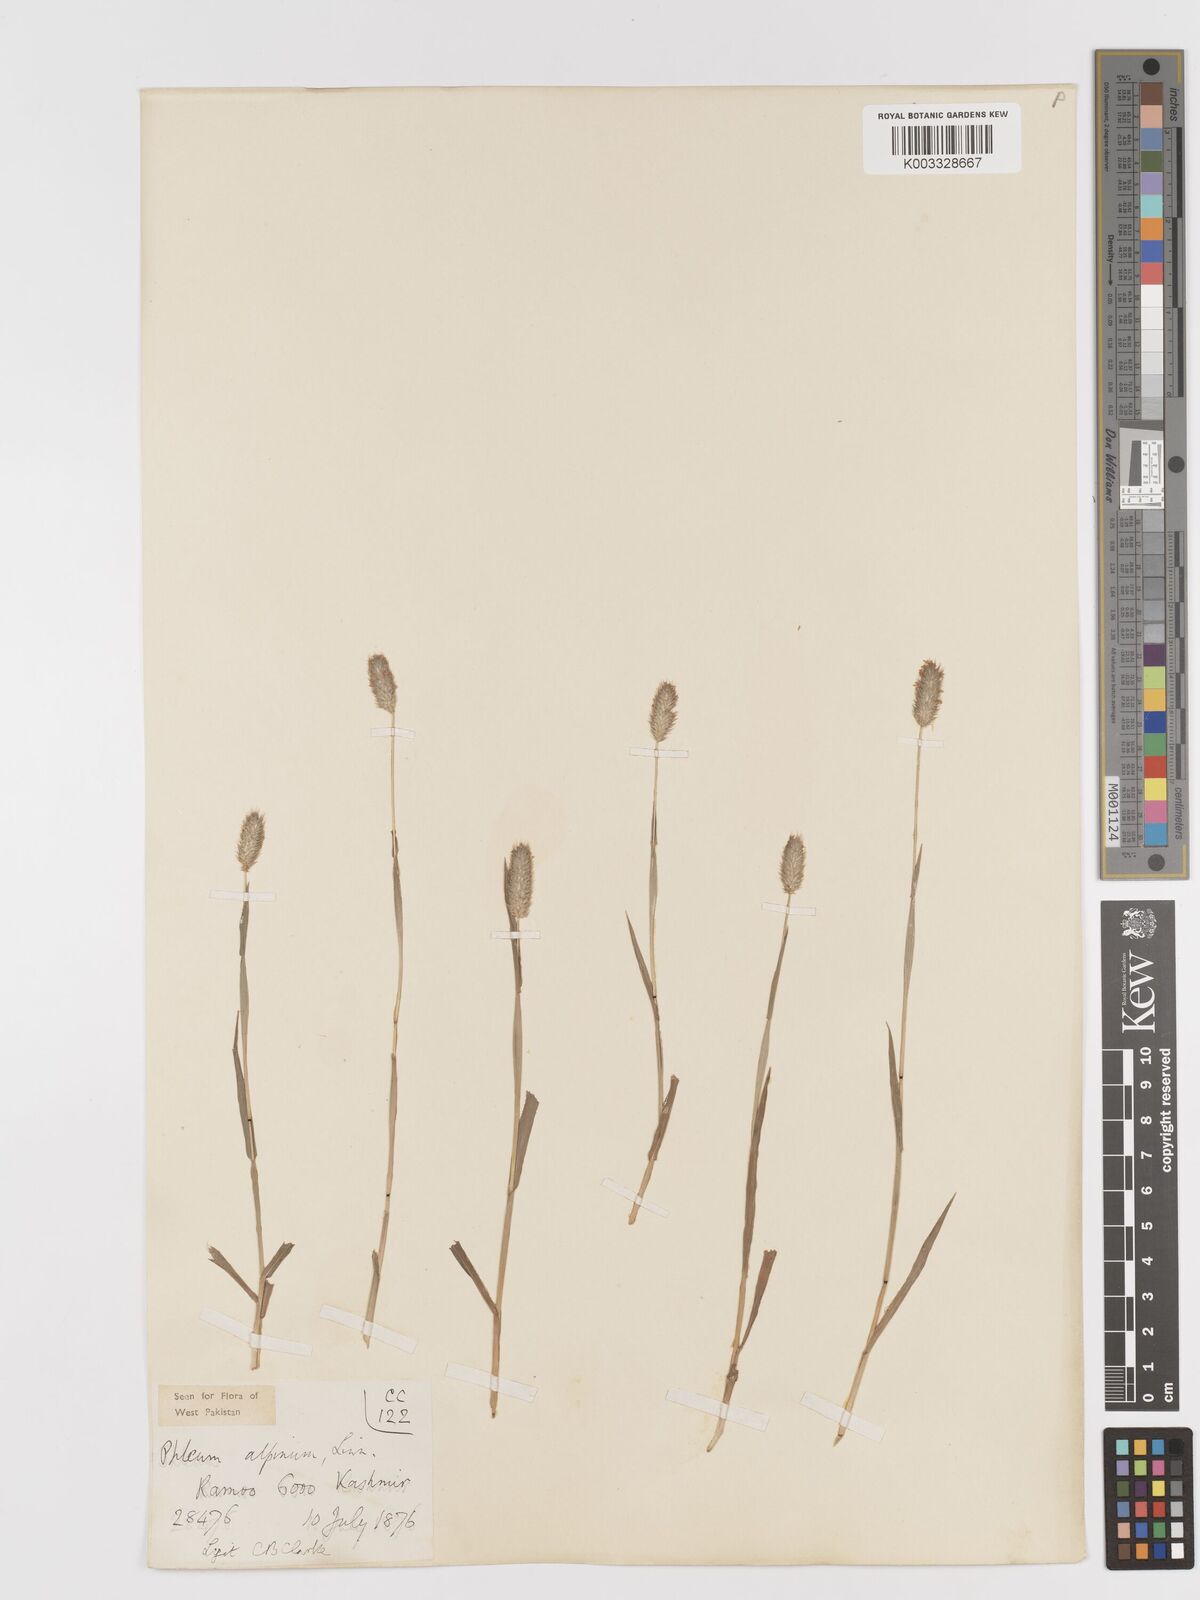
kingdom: Plantae
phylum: Tracheophyta
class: Liliopsida
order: Poales
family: Poaceae
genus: Phleum
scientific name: Phleum alpinum
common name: Alpine cat's-tail
